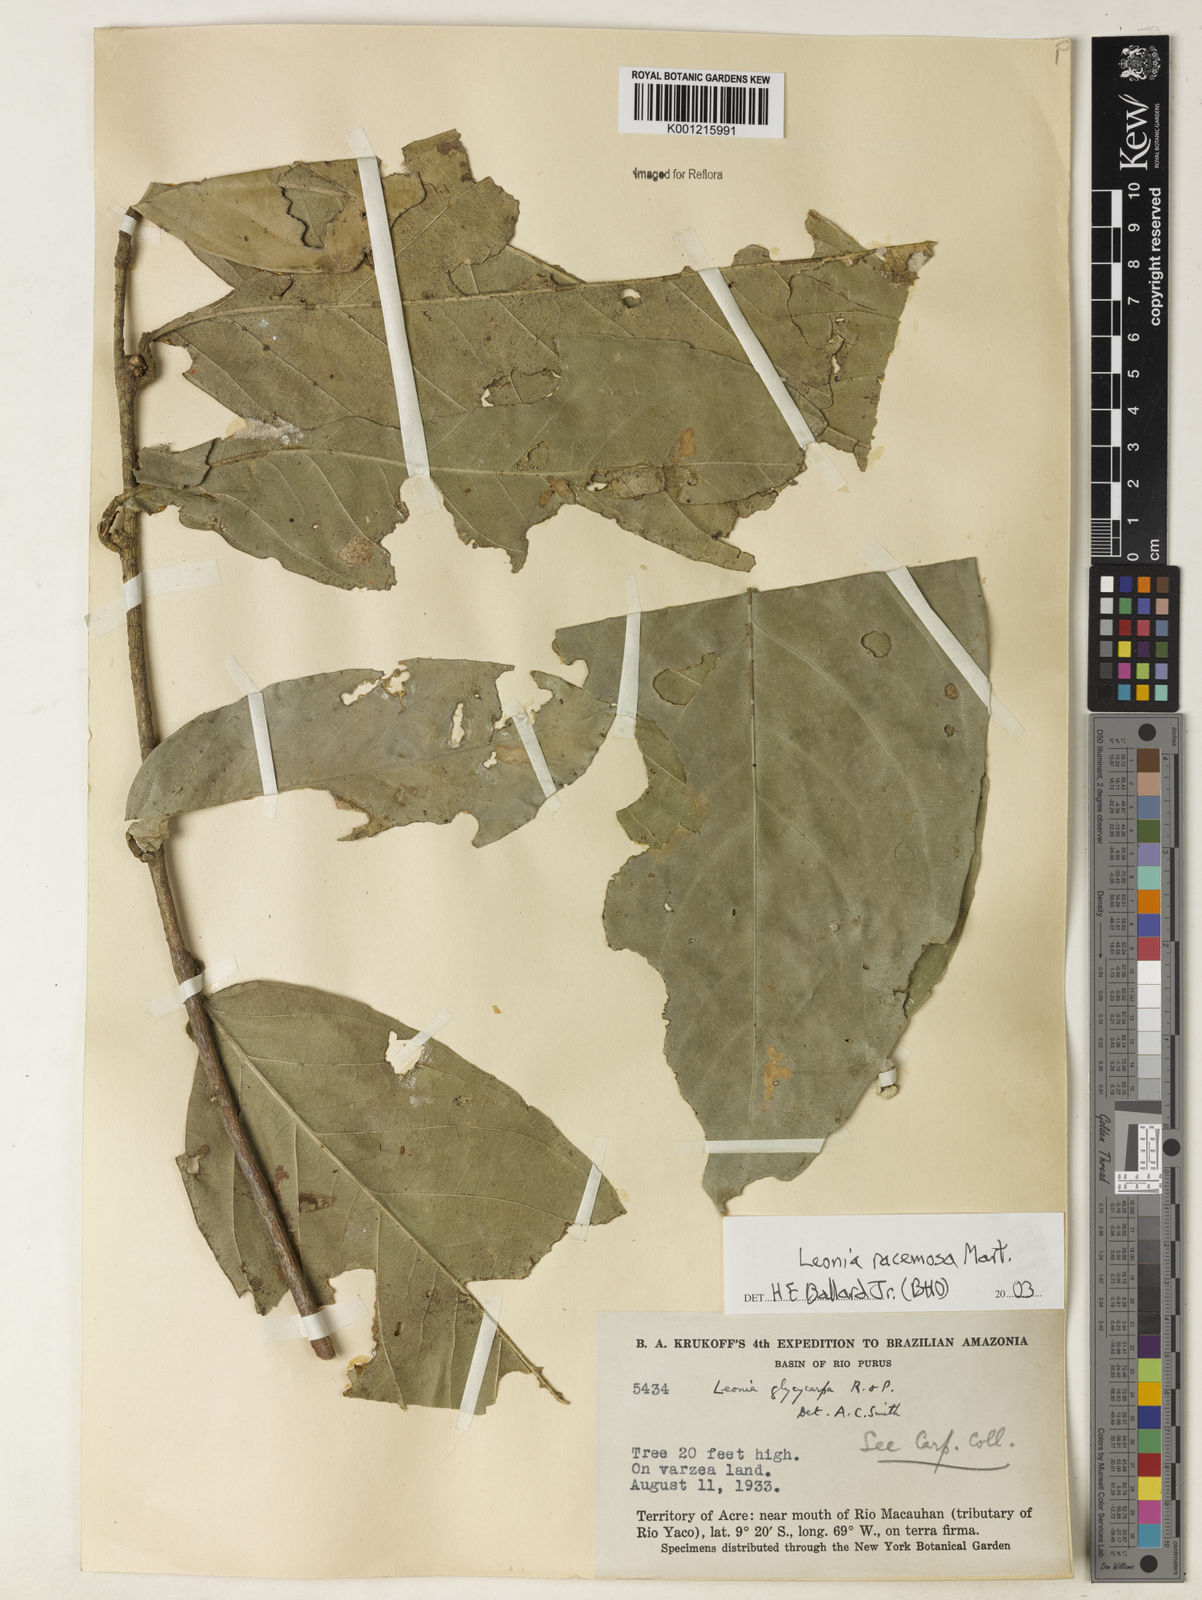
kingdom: Plantae
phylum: Tracheophyta
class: Magnoliopsida
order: Malpighiales
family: Violaceae
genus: Leonia
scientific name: Leonia glycycarpa
